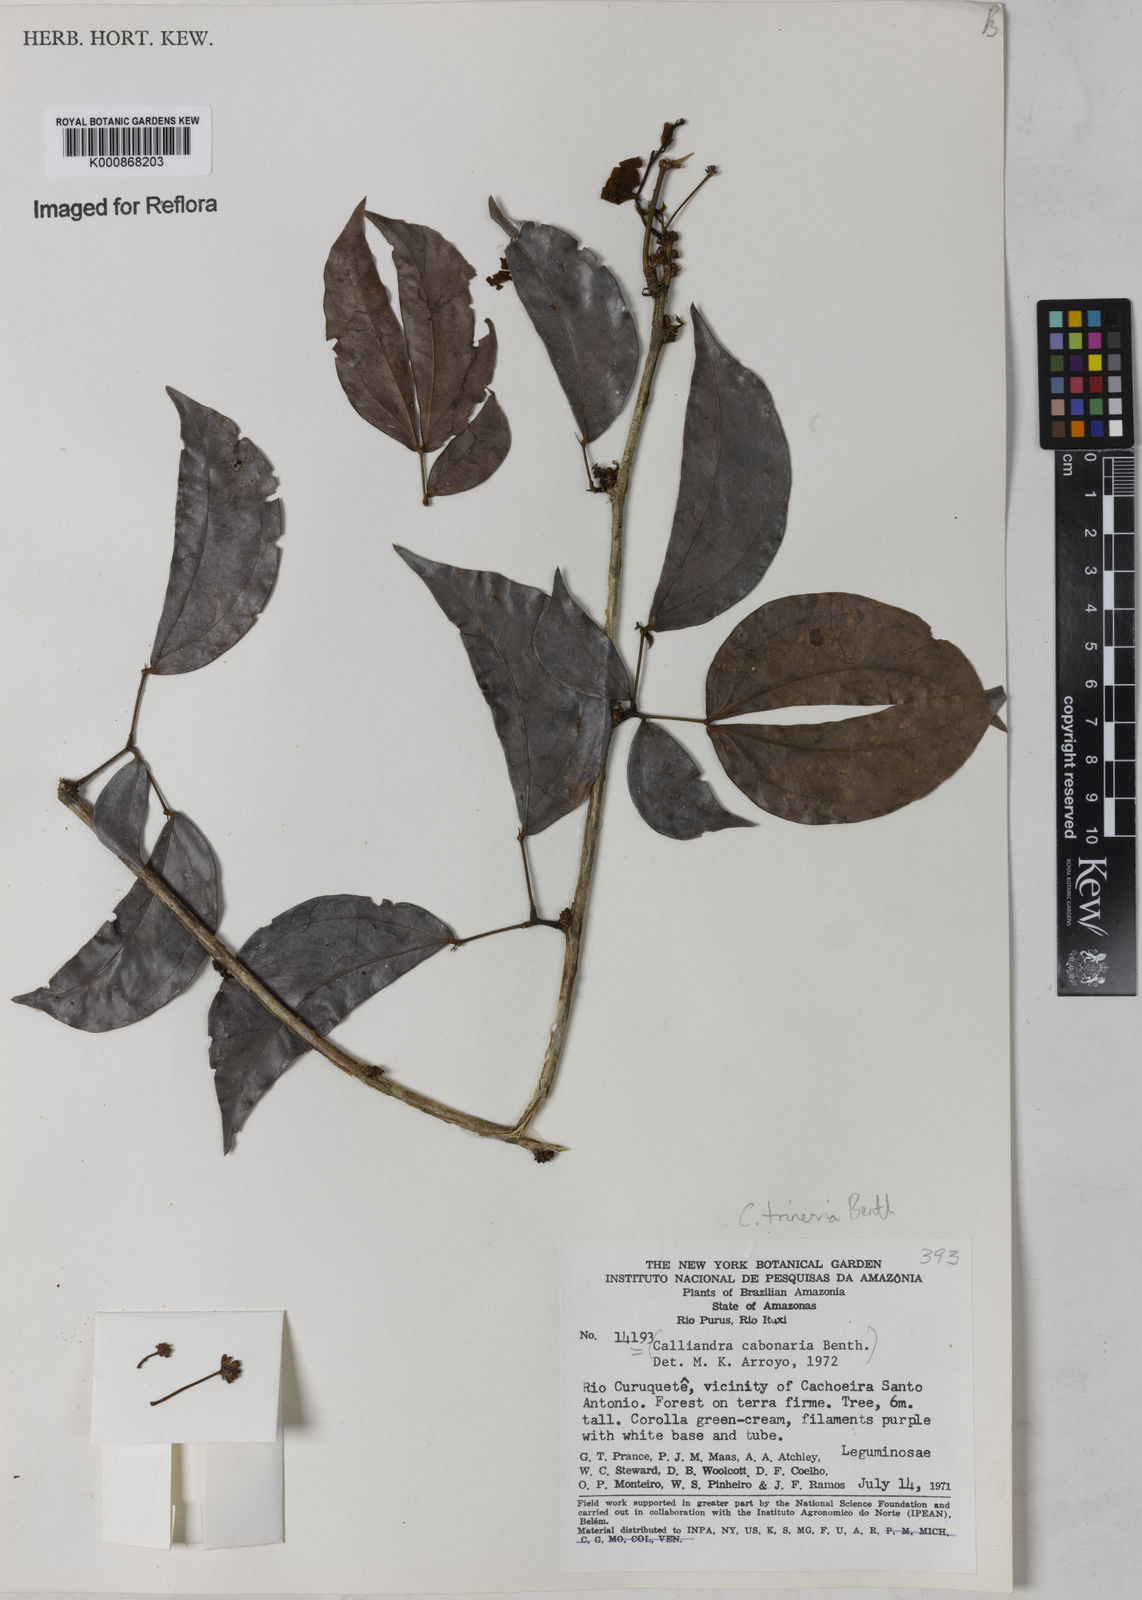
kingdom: Plantae
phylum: Tracheophyta
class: Magnoliopsida
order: Fabales
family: Fabaceae
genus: Calliandra
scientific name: Calliandra trinervia
